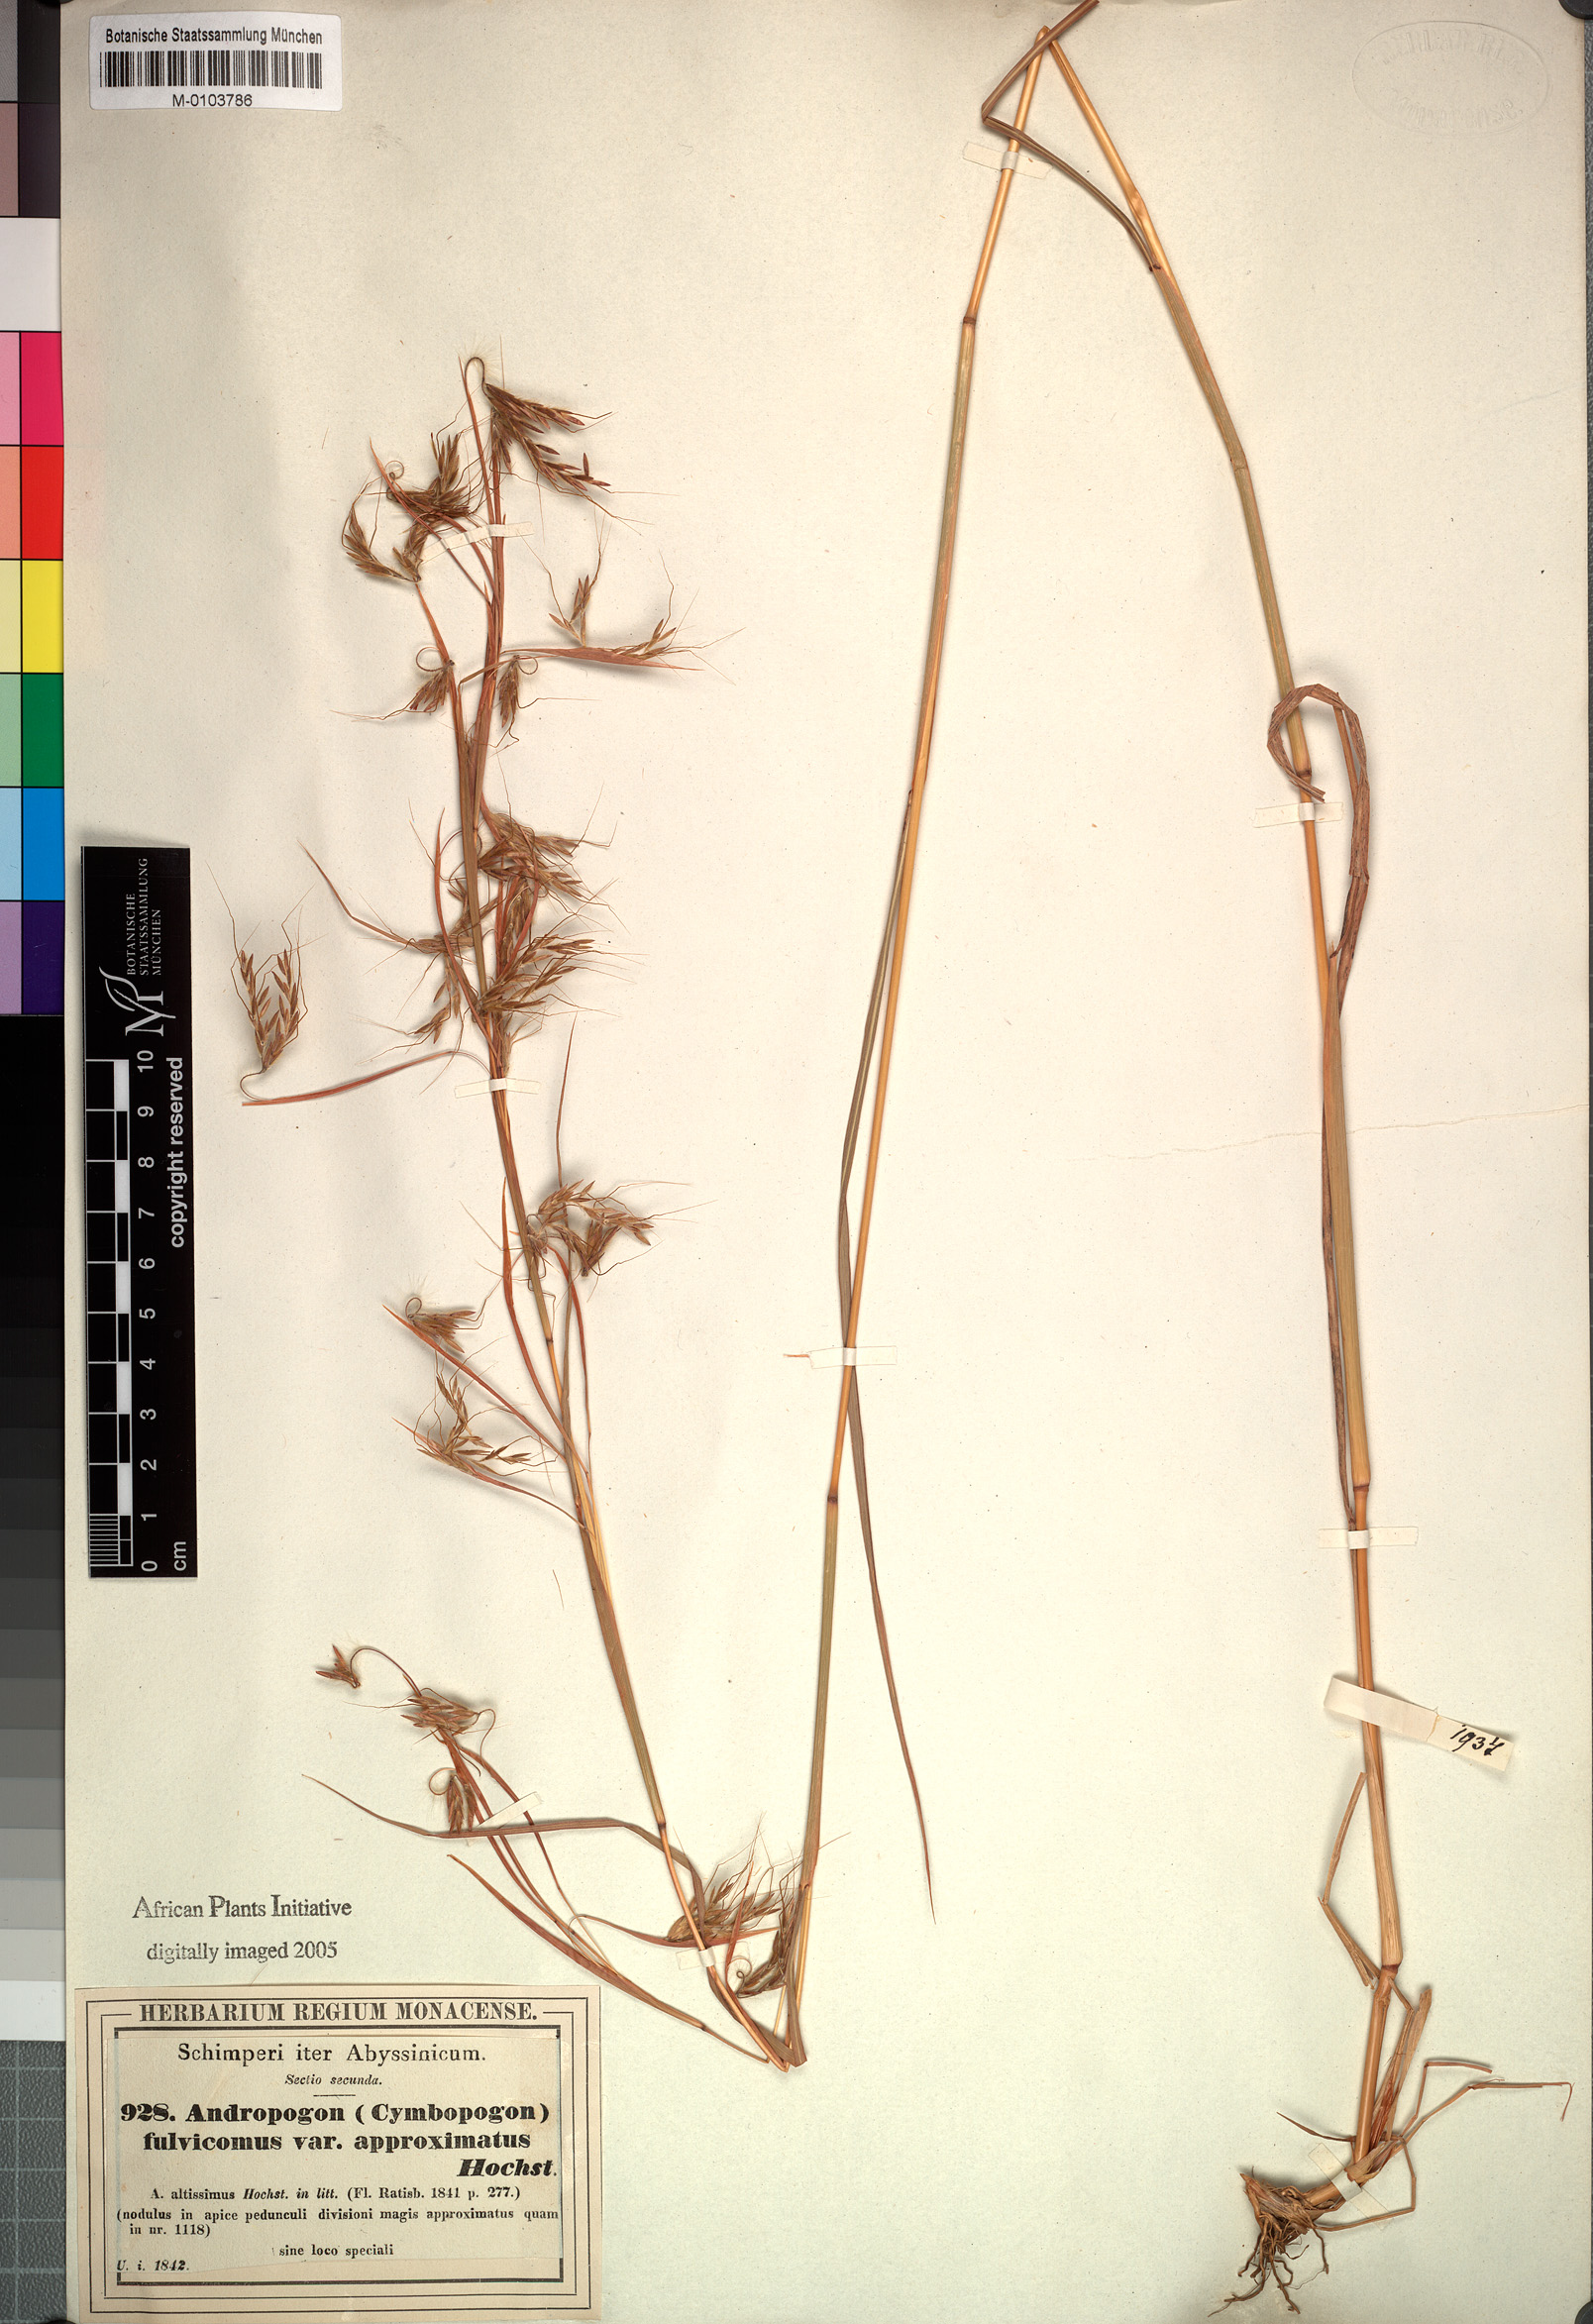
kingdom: Plantae
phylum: Tracheophyta
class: Liliopsida
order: Poales
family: Poaceae
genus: Hyparrhenia
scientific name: Hyparrhenia rufa
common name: Jaraguagrass
